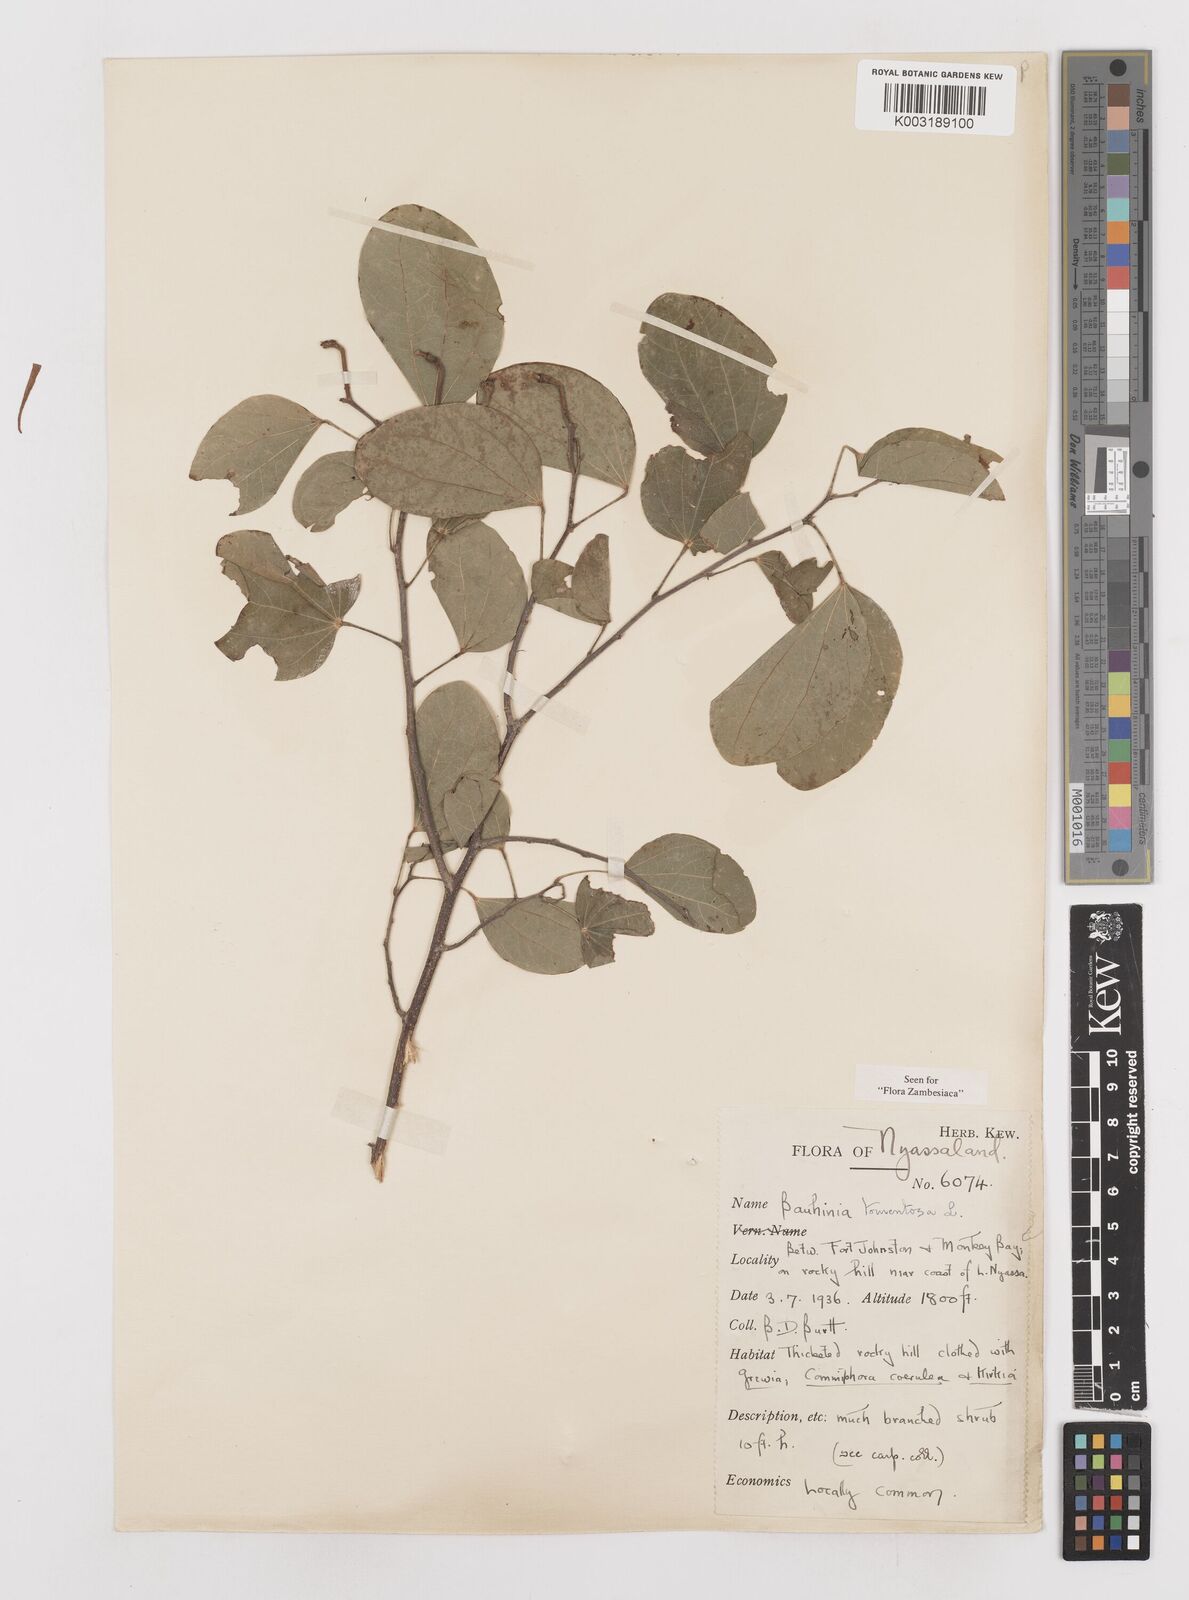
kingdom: Plantae
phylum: Tracheophyta
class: Magnoliopsida
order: Fabales
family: Fabaceae
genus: Bauhinia
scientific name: Bauhinia tomentosa
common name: Bell bauhinia
